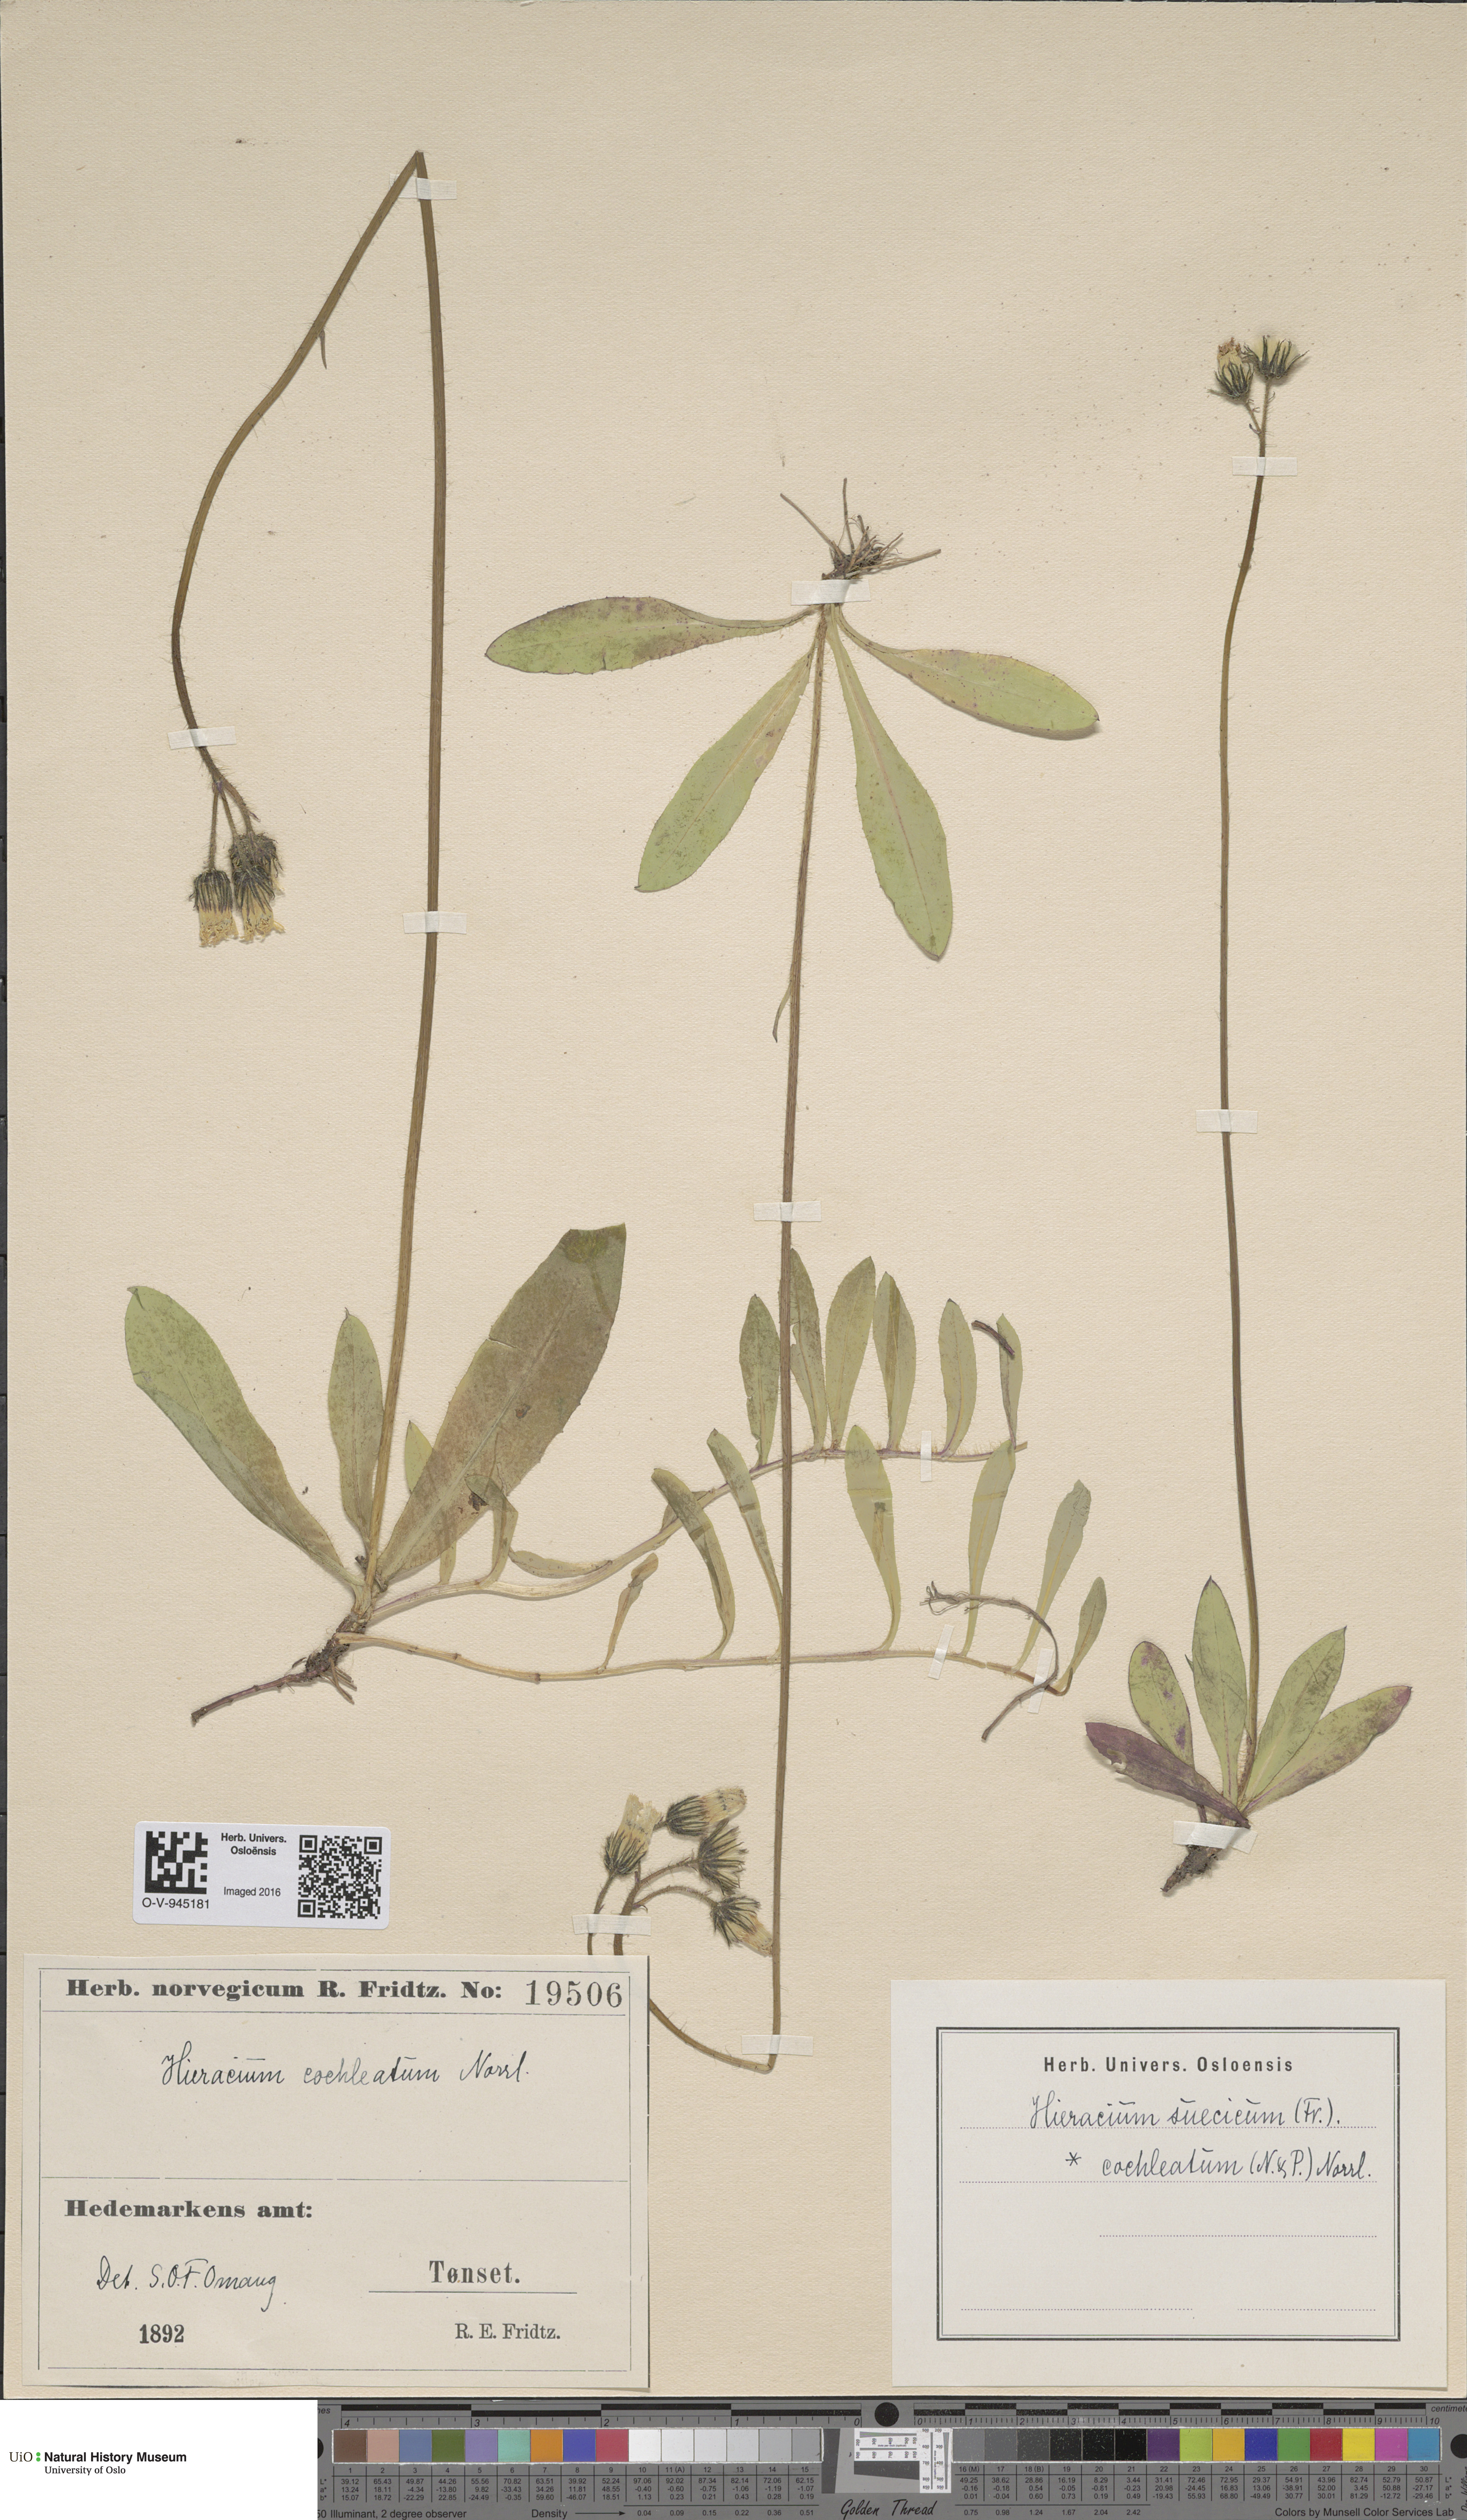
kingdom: Plantae
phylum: Tracheophyta
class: Magnoliopsida
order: Asterales
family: Asteraceae
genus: Pilosella
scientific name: Pilosella floribunda
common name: Glaucous hawkweed
